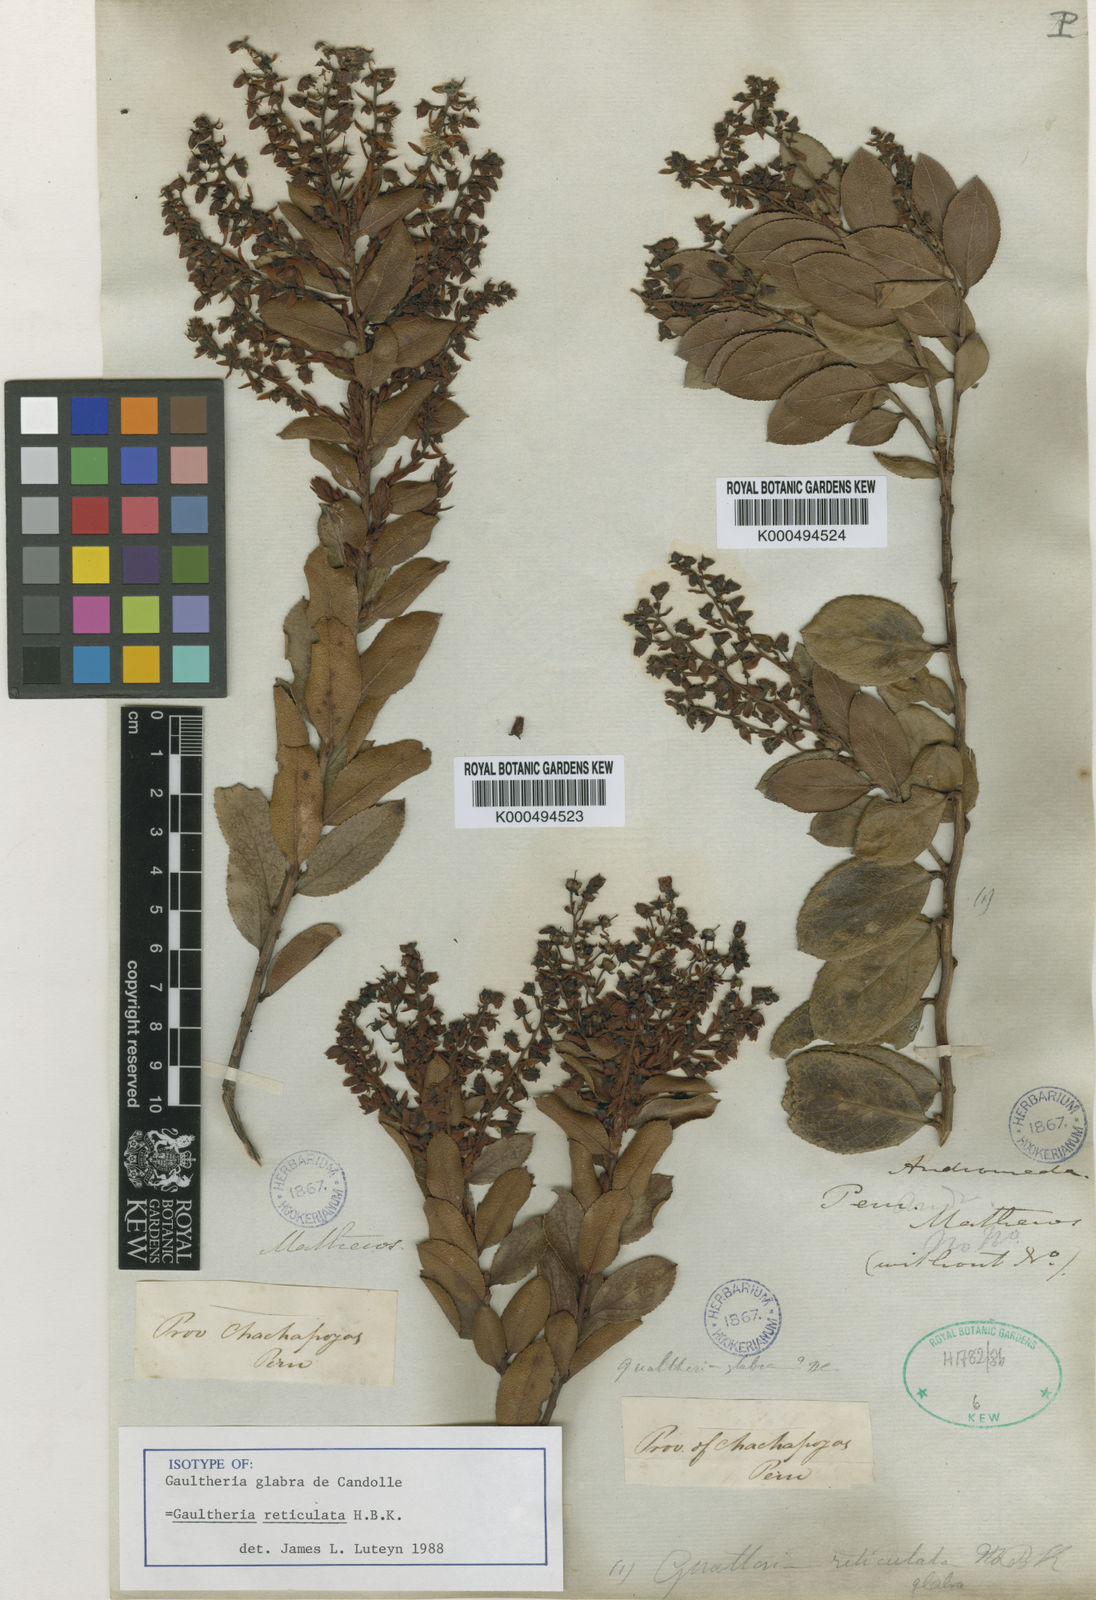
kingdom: Plantae
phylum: Tracheophyta
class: Magnoliopsida
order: Ericales
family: Ericaceae
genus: Gaultheria
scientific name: Gaultheria reticulata
